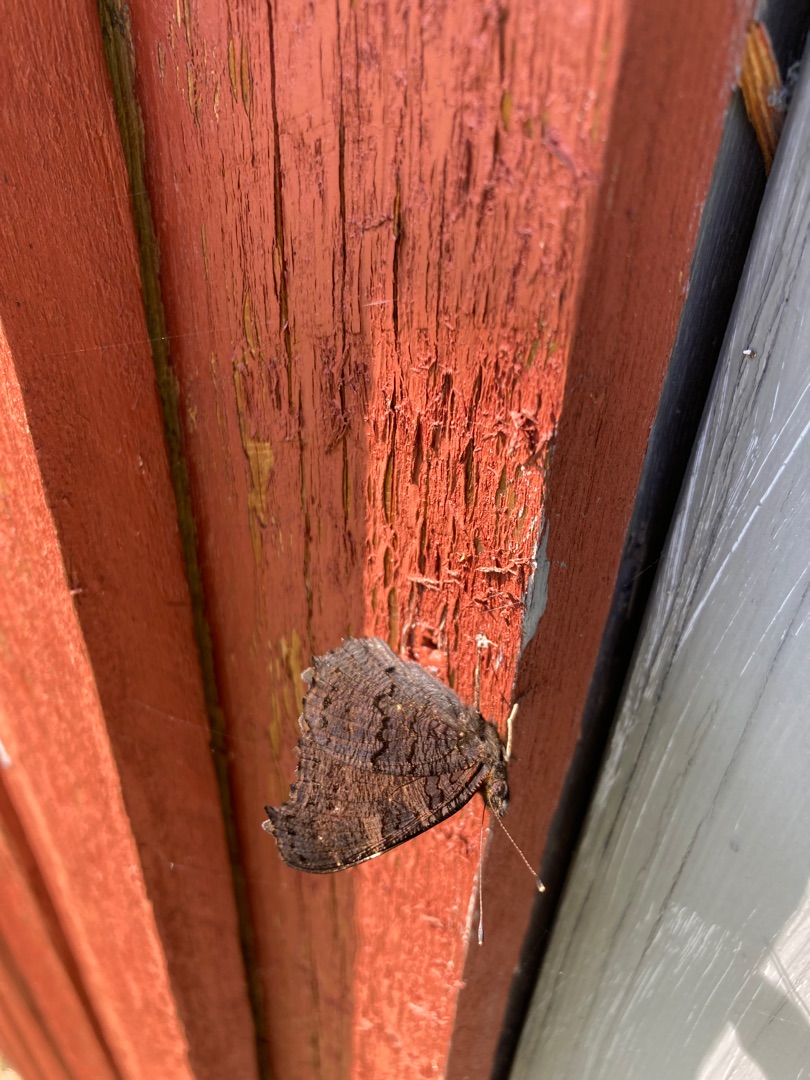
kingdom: Animalia
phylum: Arthropoda
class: Insecta
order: Lepidoptera
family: Nymphalidae
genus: Aglais
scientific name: Aglais io
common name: Dagpåfugleøje
